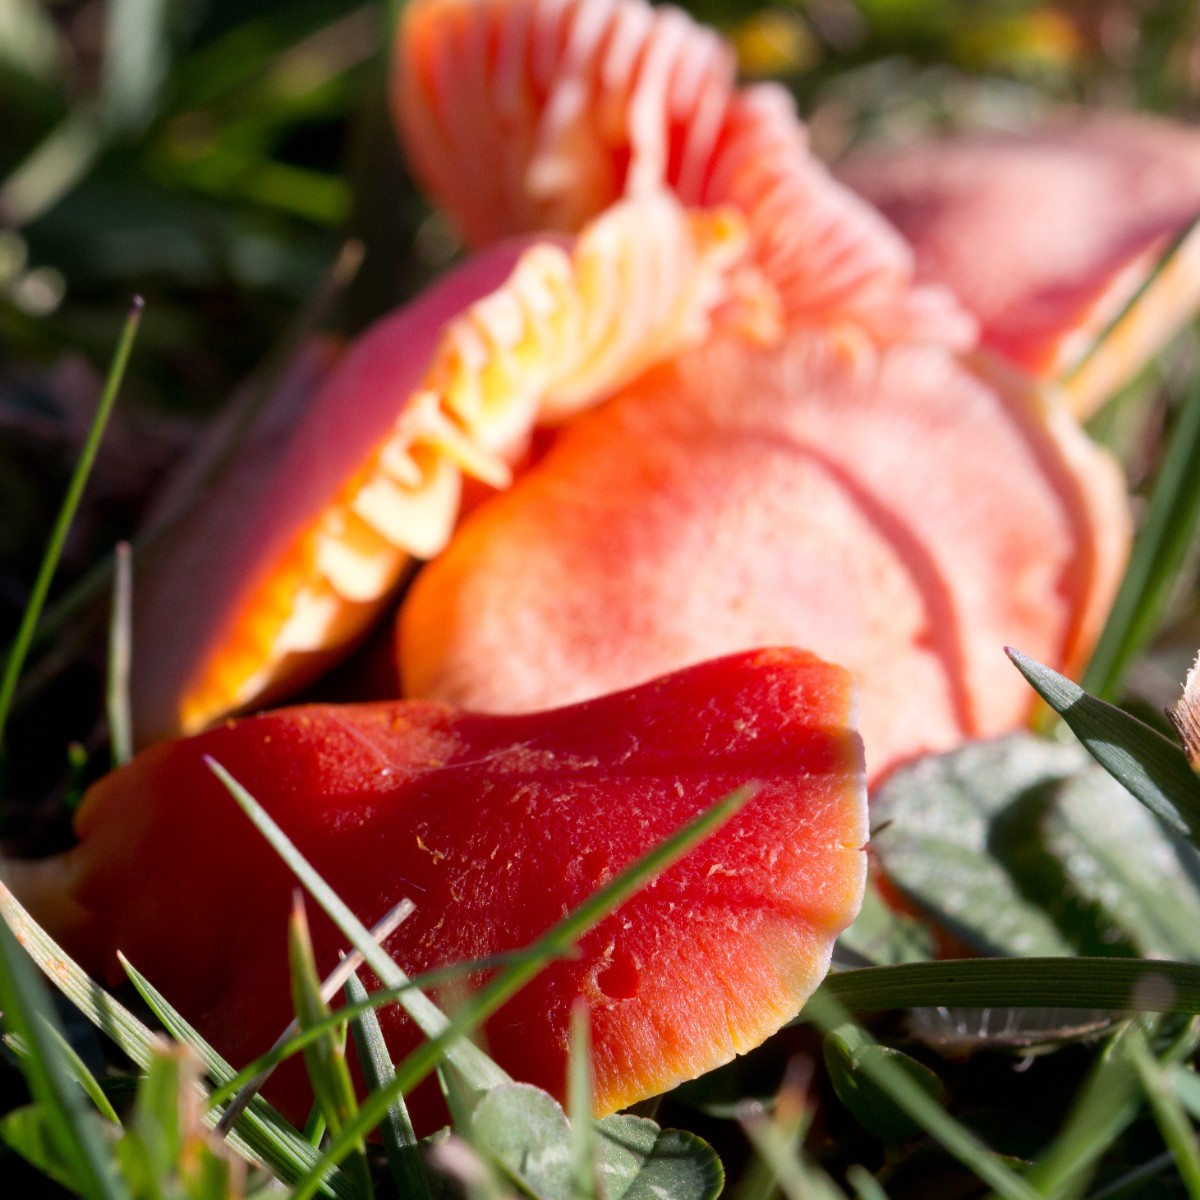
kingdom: Fungi
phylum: Basidiomycota
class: Agaricomycetes
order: Agaricales
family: Hygrophoraceae
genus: Hygrocybe
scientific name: Hygrocybe miniata
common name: mønje-vokshat
